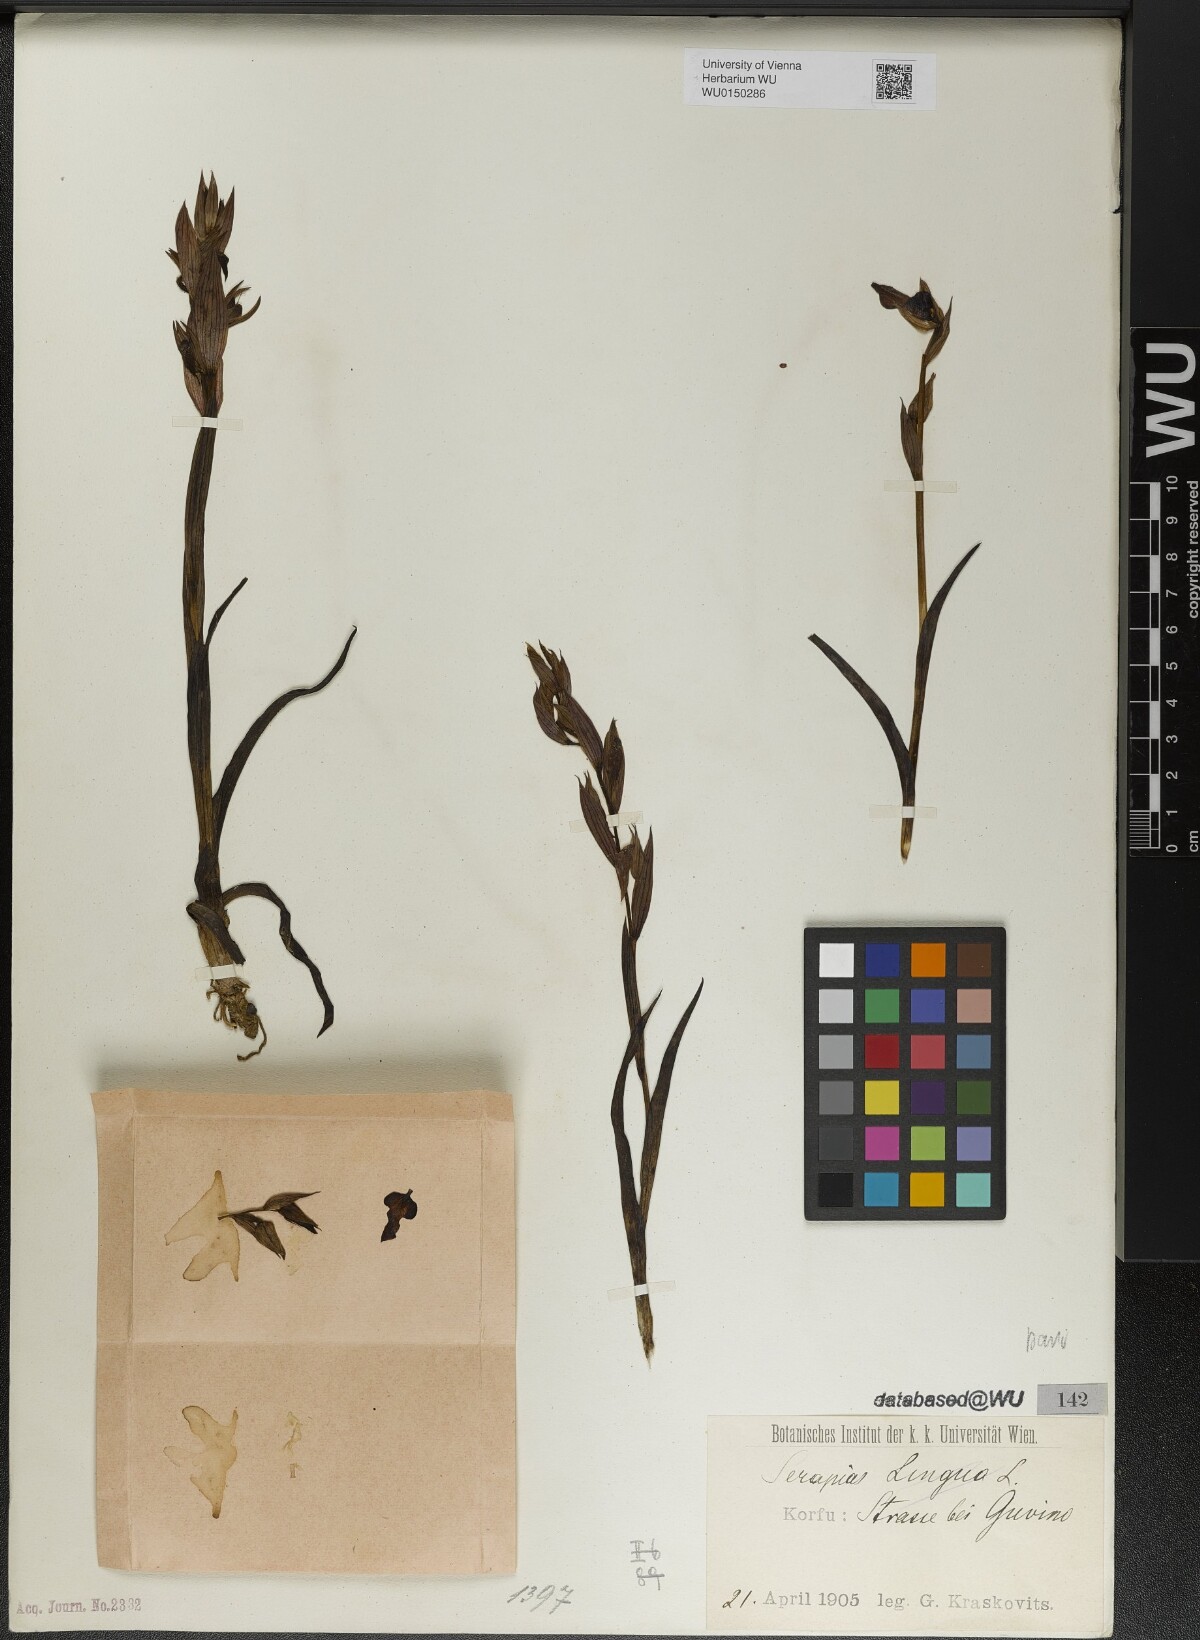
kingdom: Plantae
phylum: Tracheophyta
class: Liliopsida
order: Asparagales
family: Orchidaceae
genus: Serapias
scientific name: Serapias parviflora
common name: Small-flowered tongue-orchid
